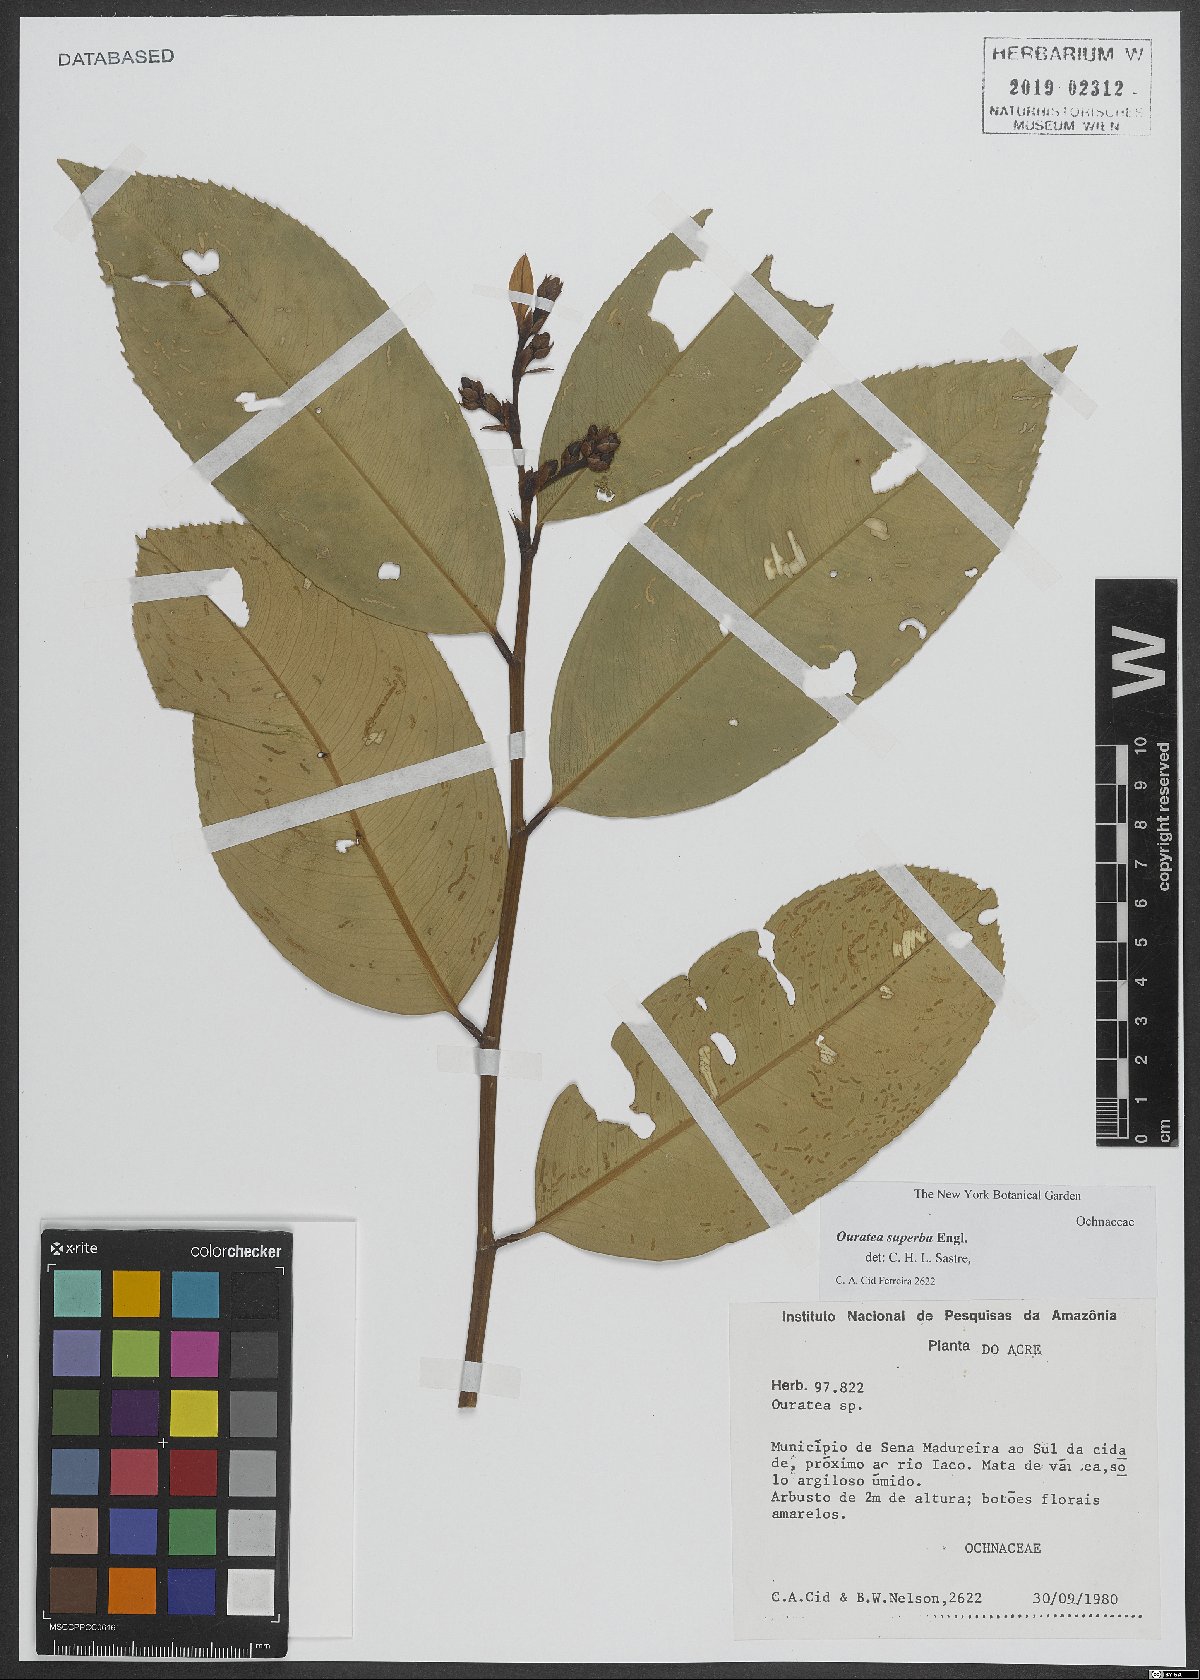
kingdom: Plantae
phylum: Tracheophyta
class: Magnoliopsida
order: Malpighiales
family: Ochnaceae
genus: Ouratea
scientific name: Ouratea superba
